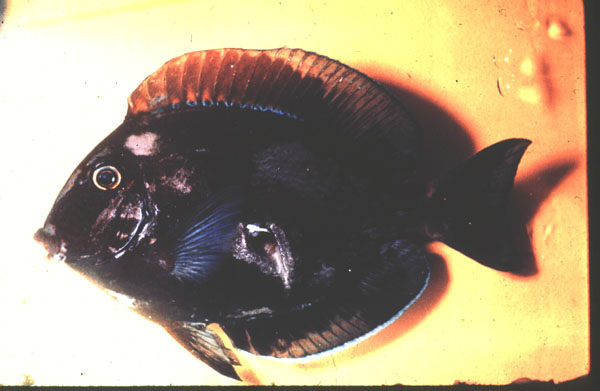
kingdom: Animalia
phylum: Chordata
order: Perciformes
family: Acanthuridae
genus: Acanthurus
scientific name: Acanthurus mata
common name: Bleeker's surgeonfish
